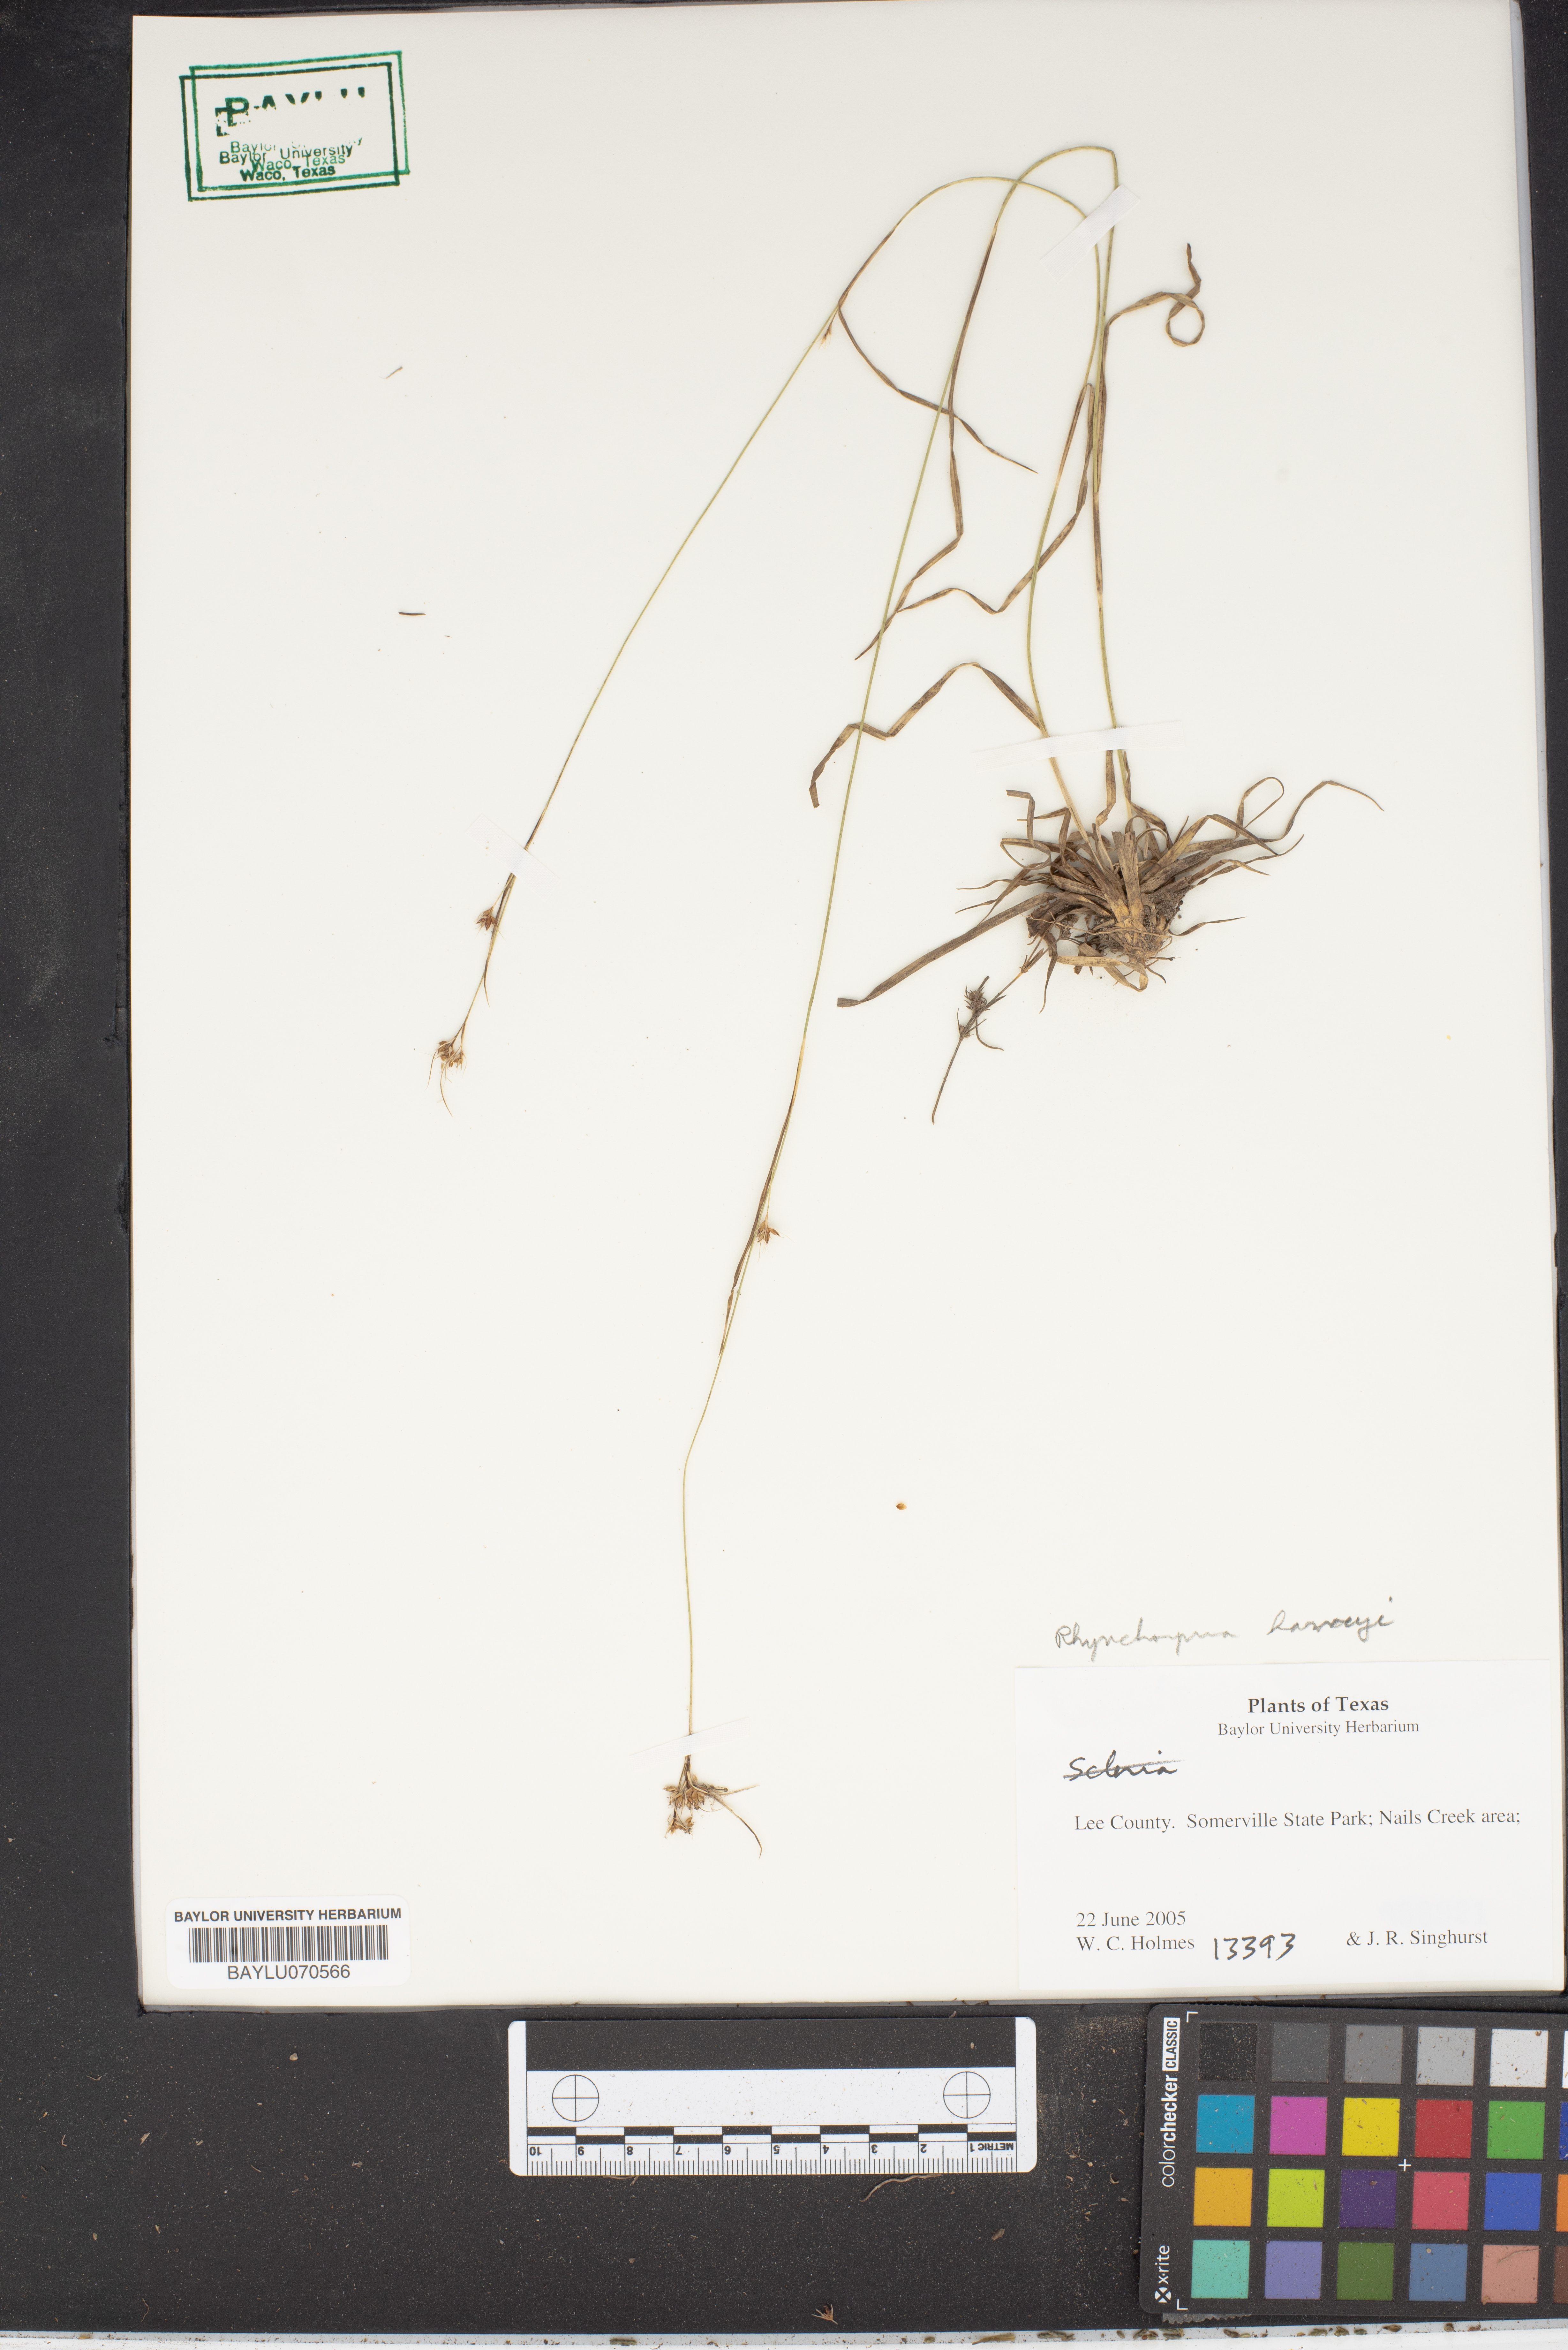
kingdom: Plantae
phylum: Tracheophyta
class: Liliopsida
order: Asparagales
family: Orchidaceae
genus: Pleurothallis
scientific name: Pleurothallis
